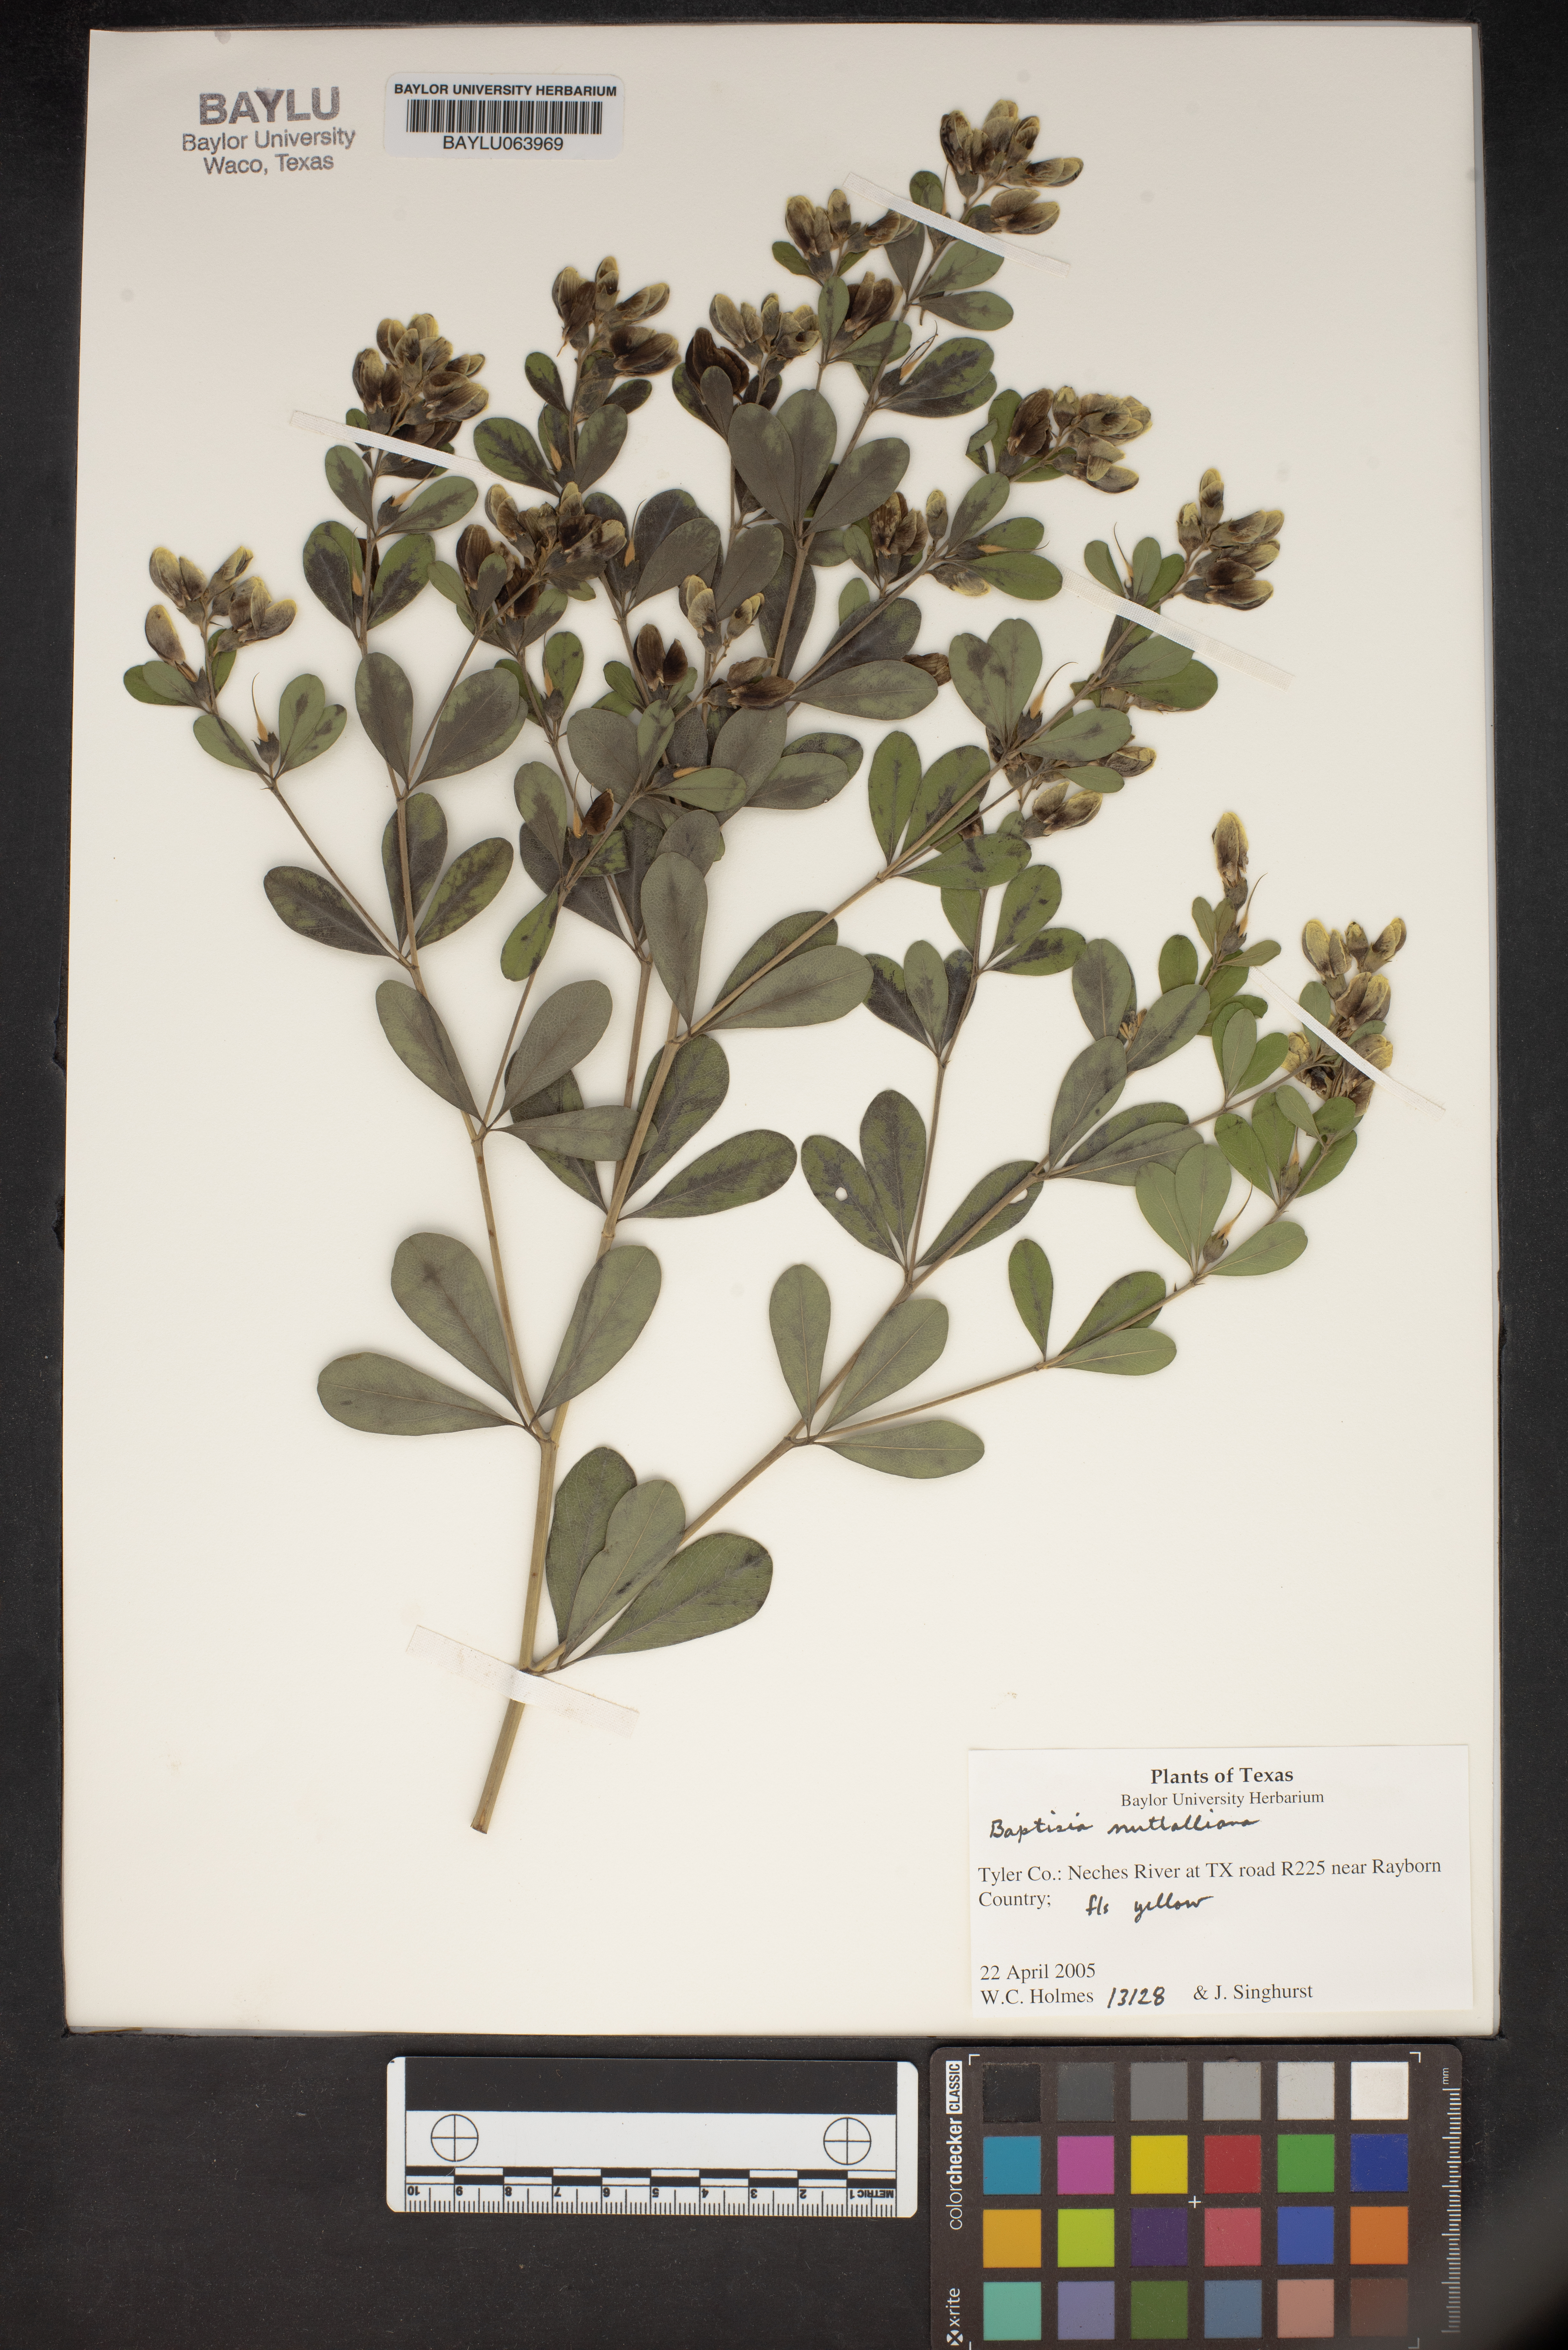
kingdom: Plantae
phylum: Tracheophyta
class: Magnoliopsida
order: Fabales
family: Fabaceae
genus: Baptisia
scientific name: Baptisia nuttalliana
